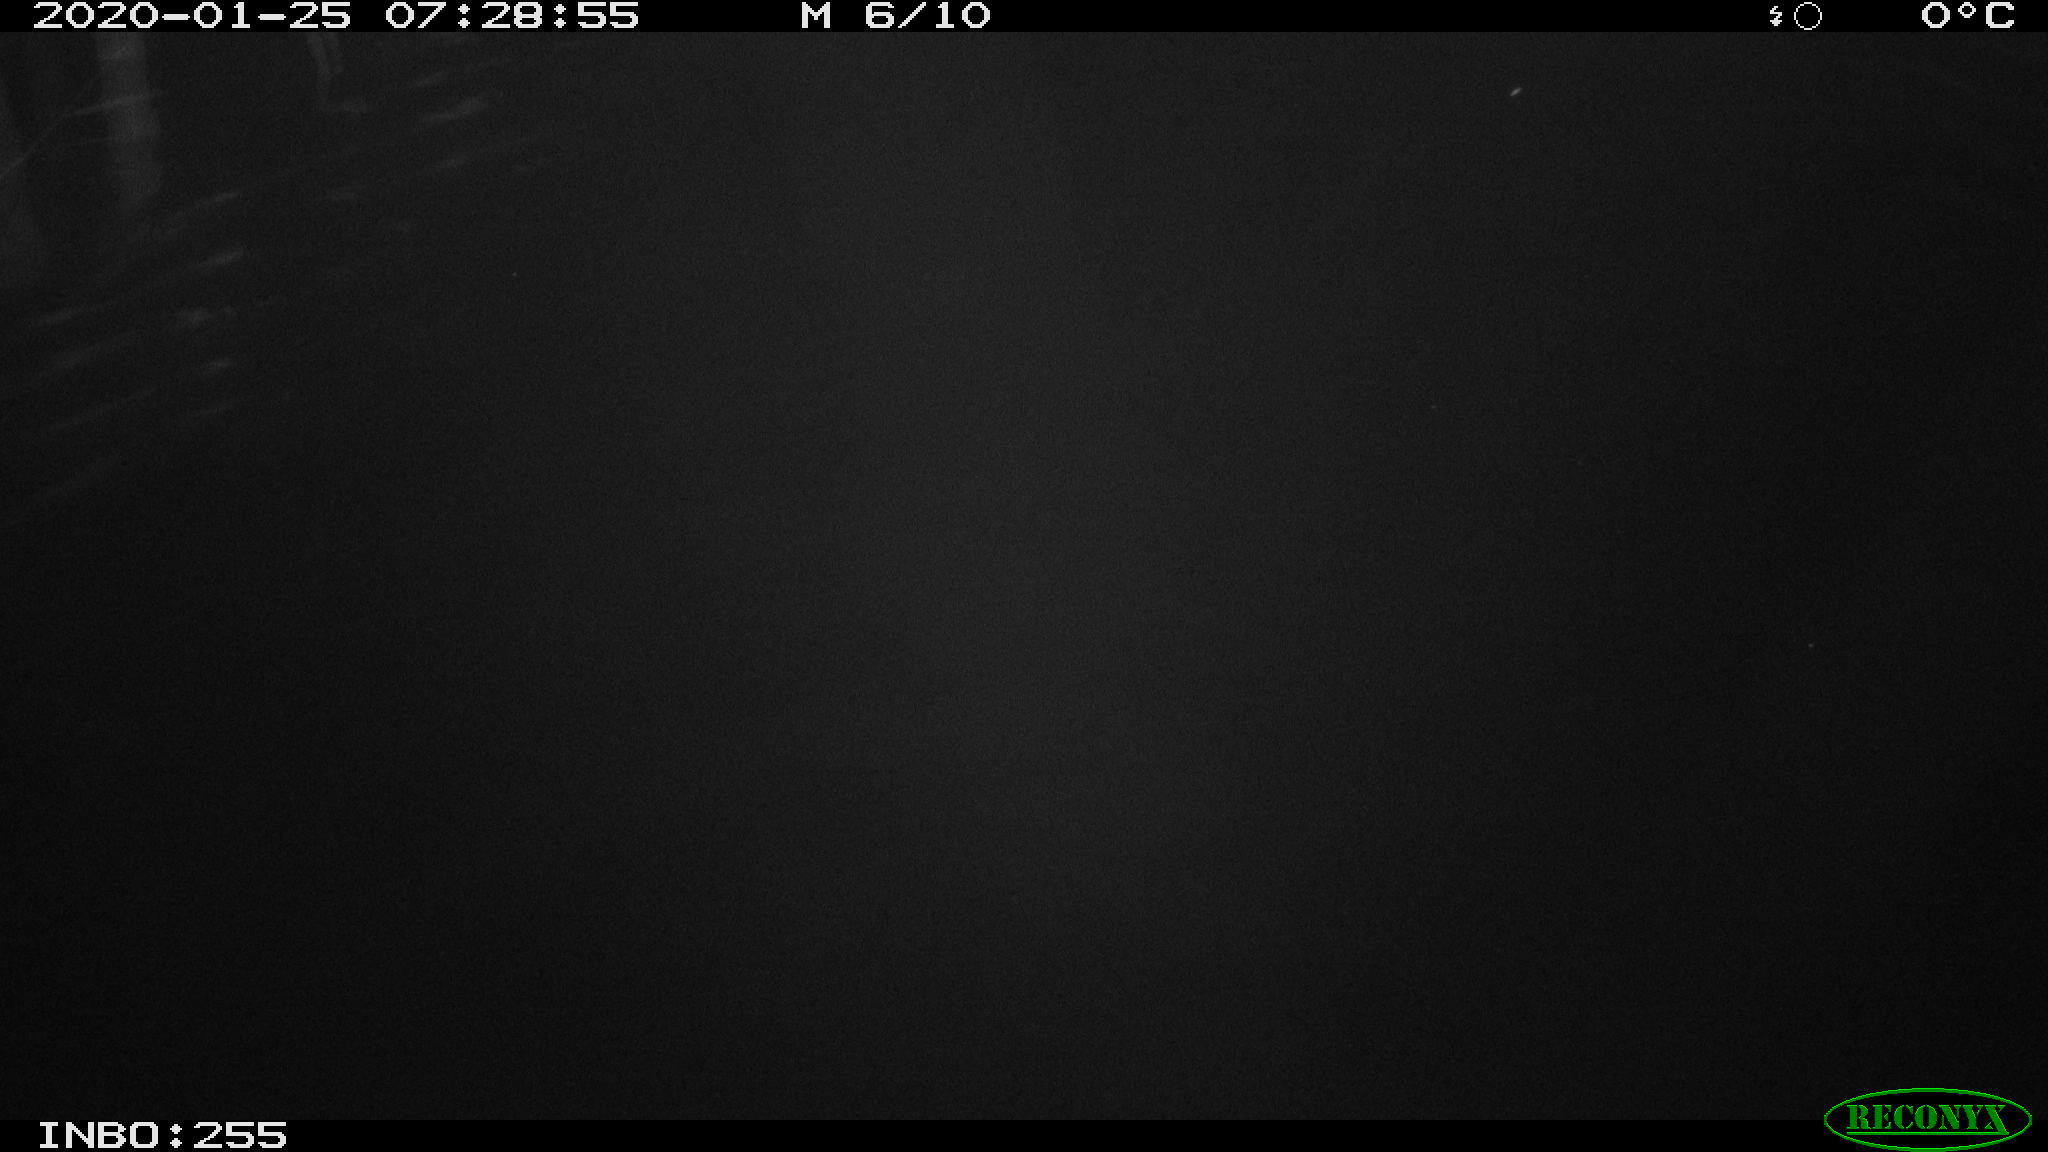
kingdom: Animalia
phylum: Chordata
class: Aves
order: Anseriformes
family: Anatidae
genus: Anas
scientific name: Anas platyrhynchos
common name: Mallard
